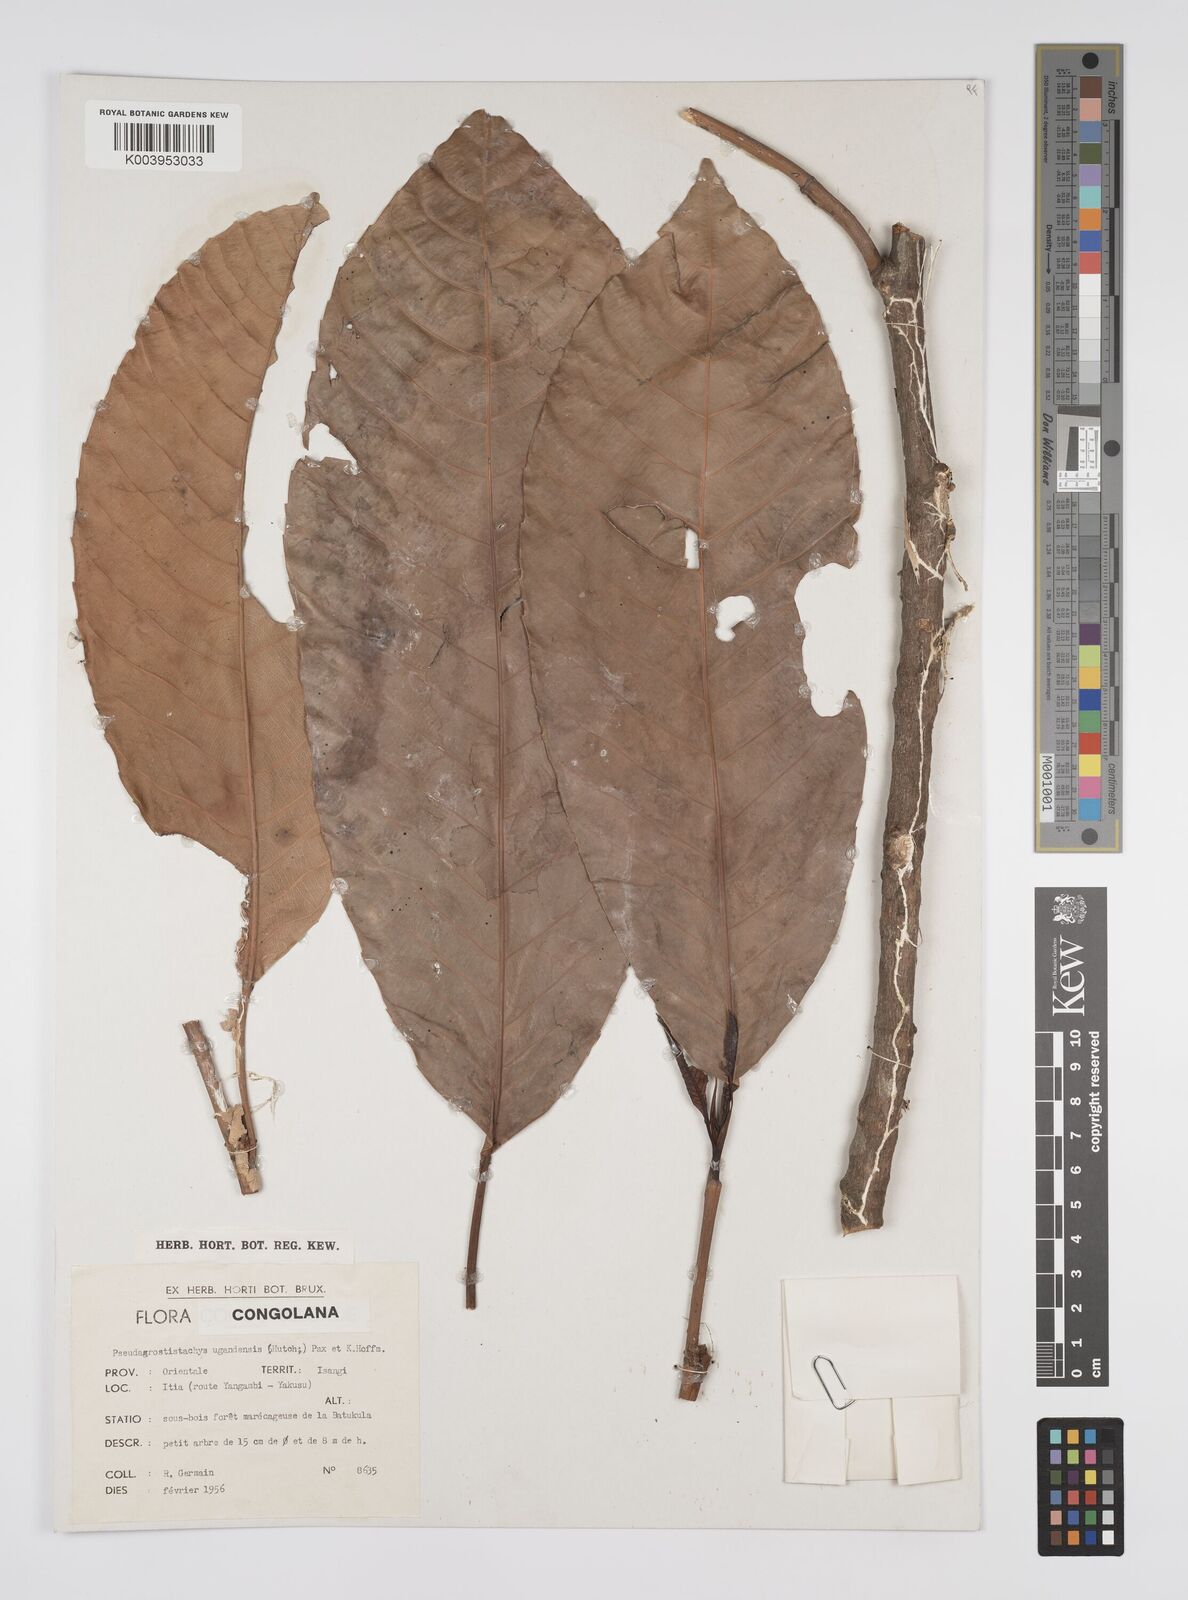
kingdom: Plantae
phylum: Tracheophyta
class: Magnoliopsida
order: Malpighiales
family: Euphorbiaceae
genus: Pseudagrostistachys
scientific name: Pseudagrostistachys ugandensis
